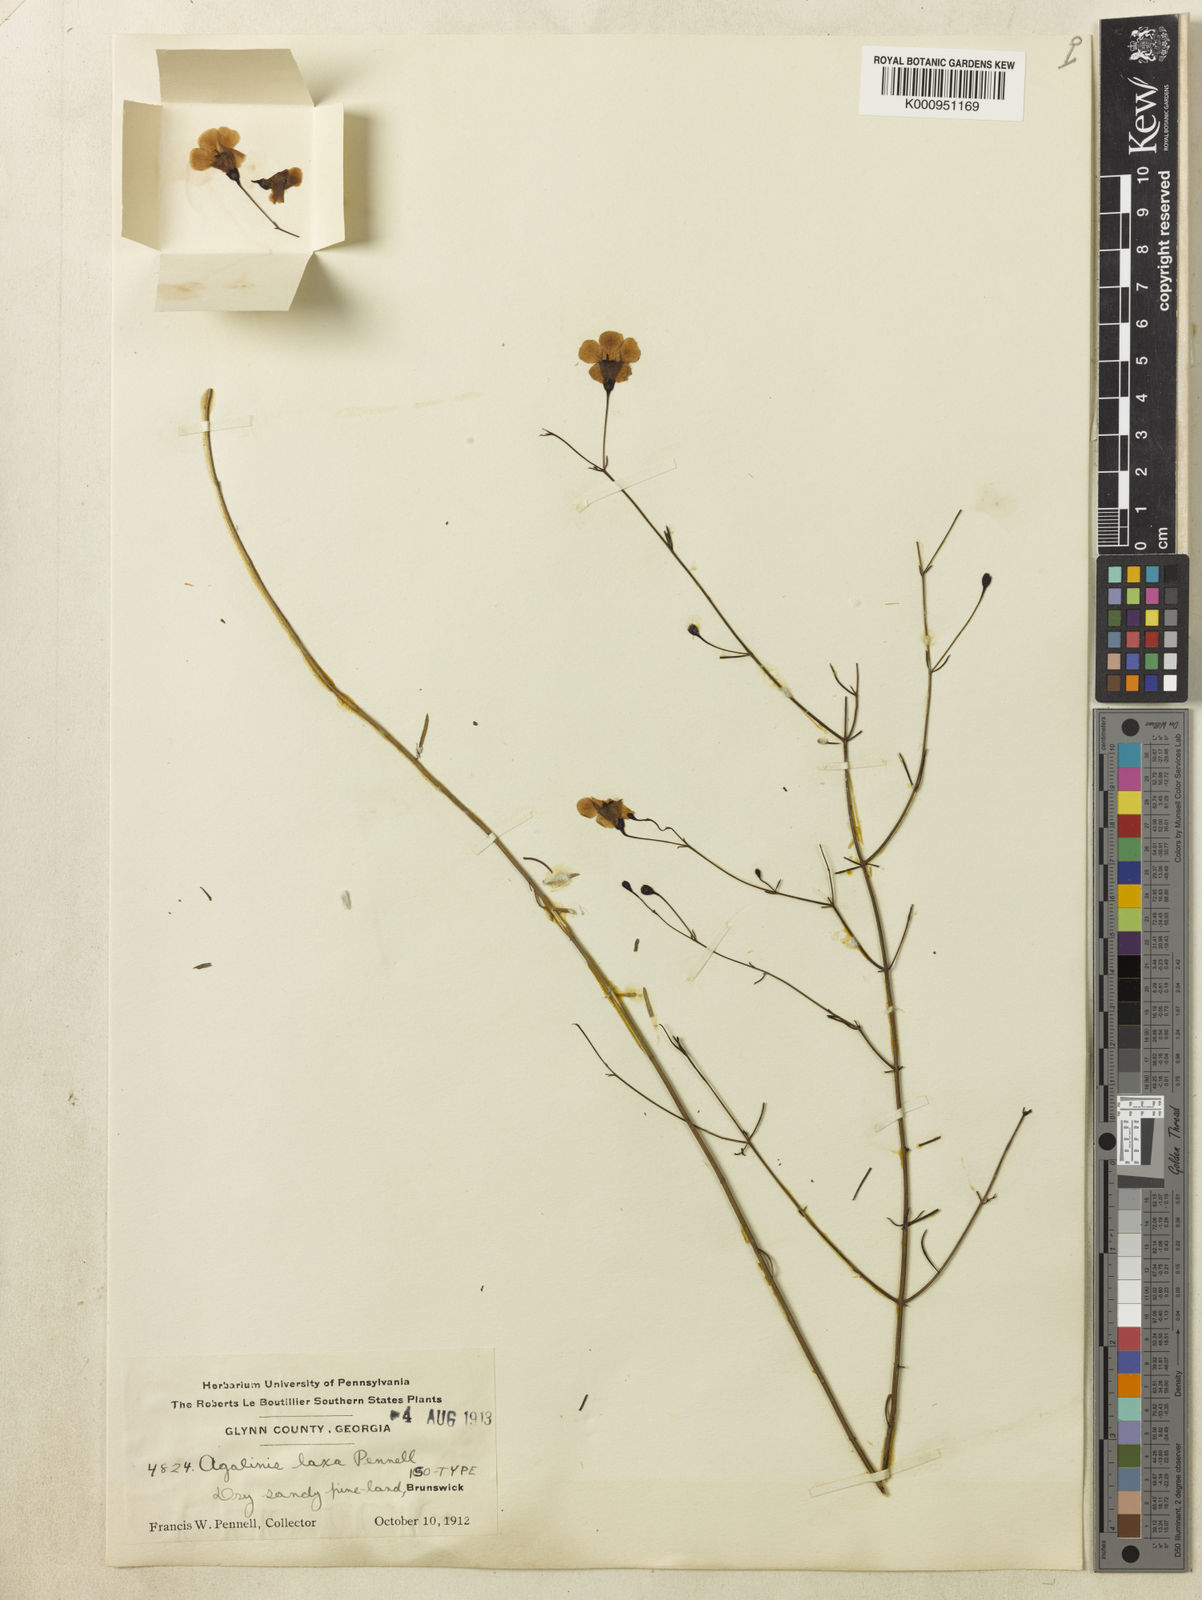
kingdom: Plantae
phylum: Tracheophyta
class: Magnoliopsida
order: Lamiales
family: Orobanchaceae
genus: Agalinis
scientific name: Agalinis laxa
